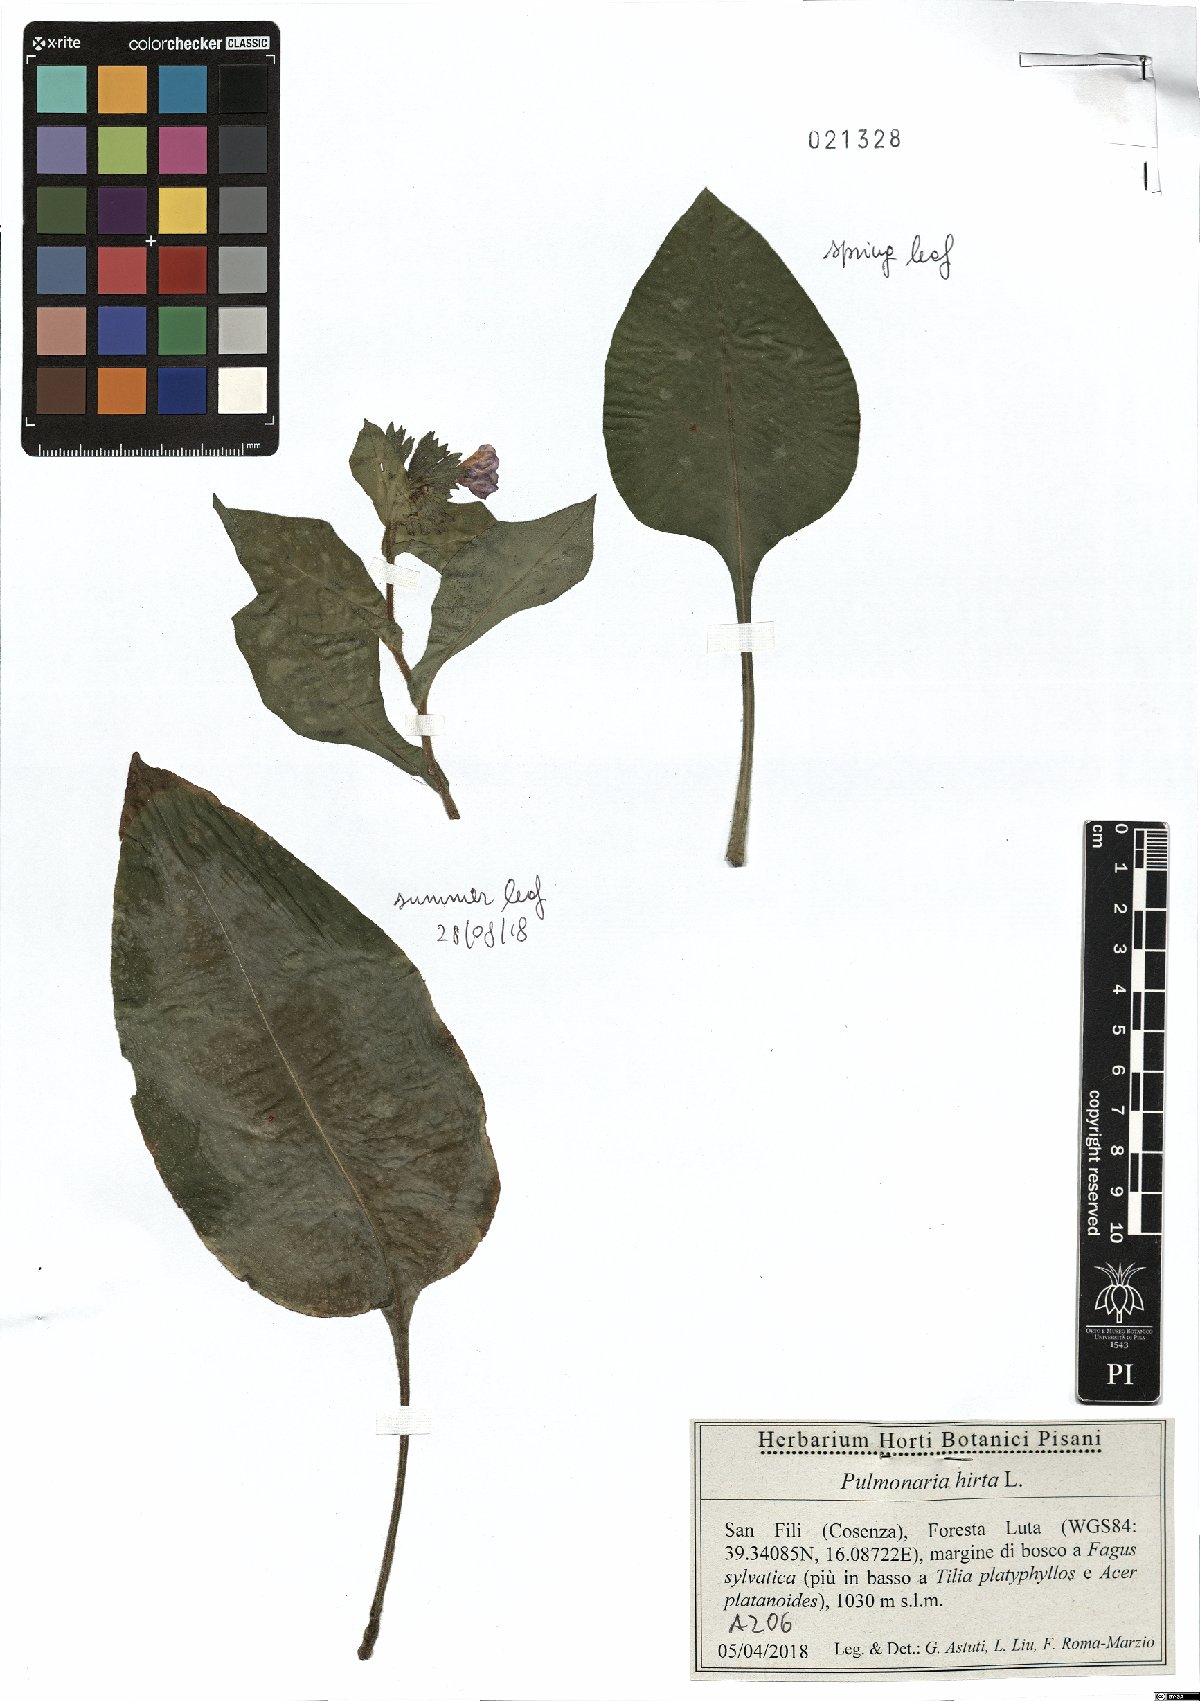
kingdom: Plantae
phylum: Tracheophyta
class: Magnoliopsida
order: Boraginales
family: Boraginaceae
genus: Pulmonaria
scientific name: Pulmonaria hirta
